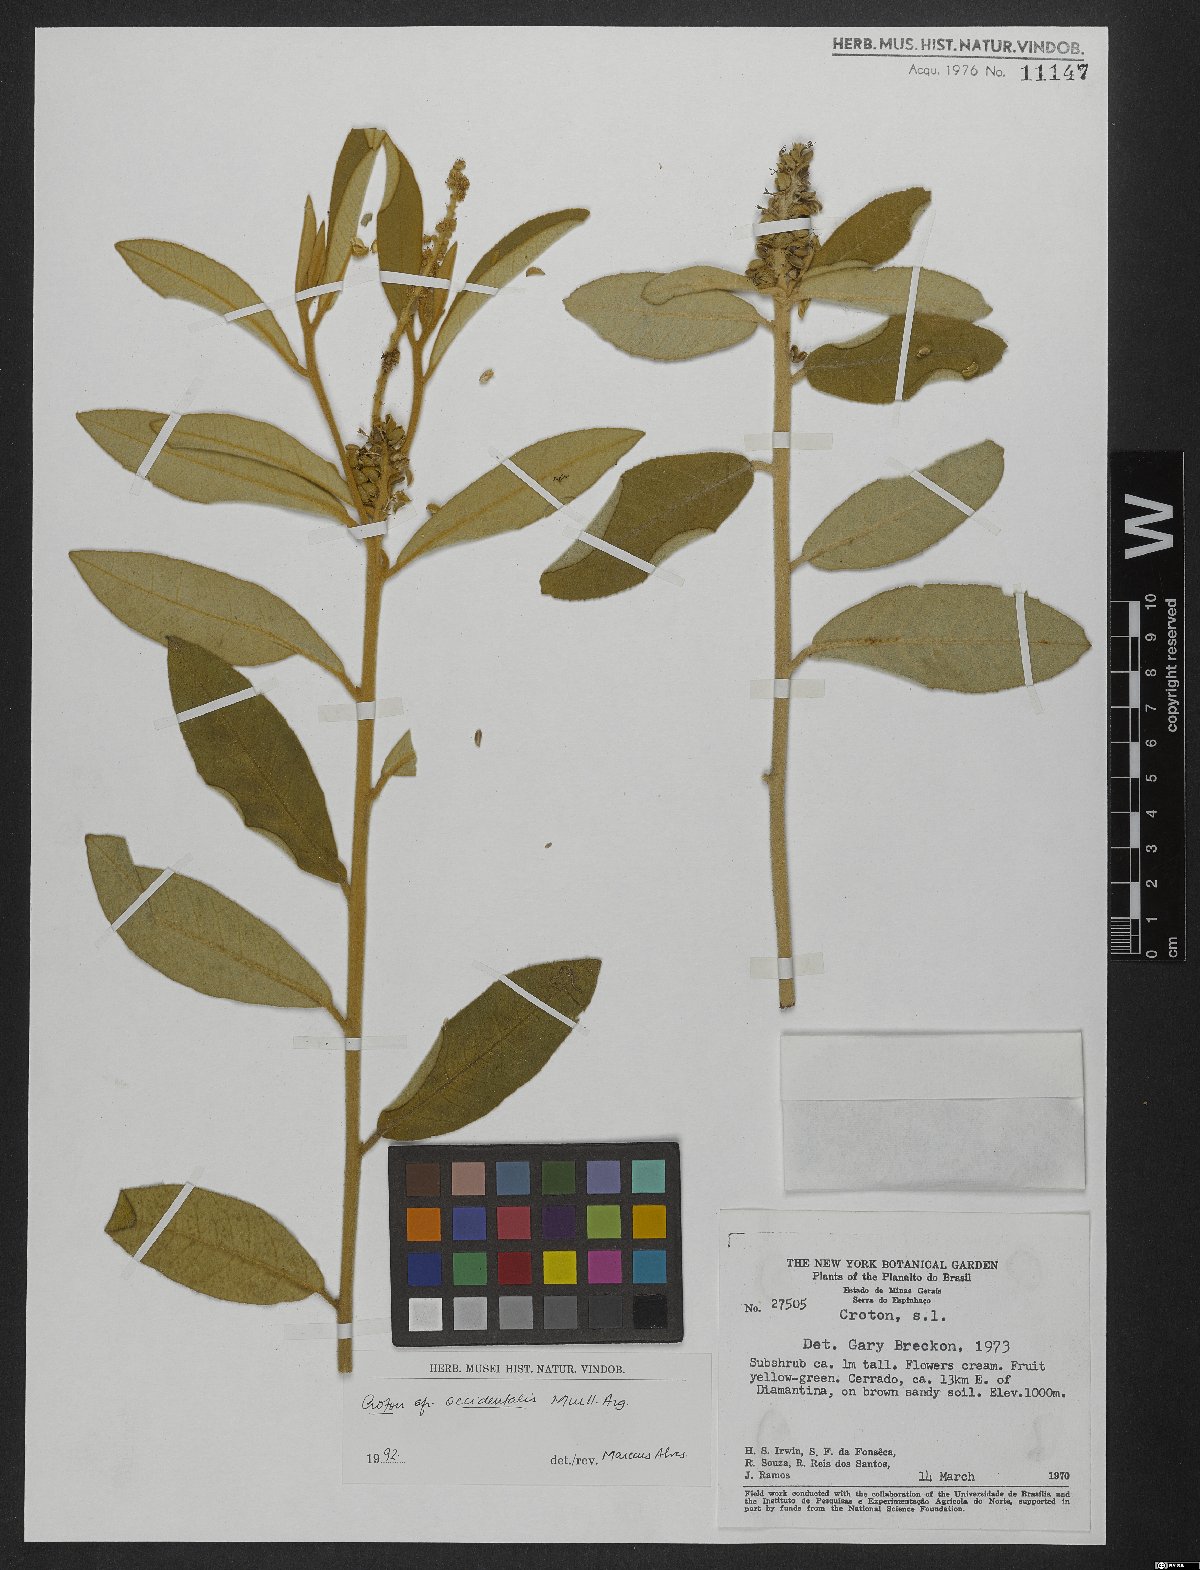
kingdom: Plantae
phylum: Tracheophyta
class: Magnoliopsida
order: Malpighiales
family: Euphorbiaceae
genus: Croton
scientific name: Croton grandivelum
